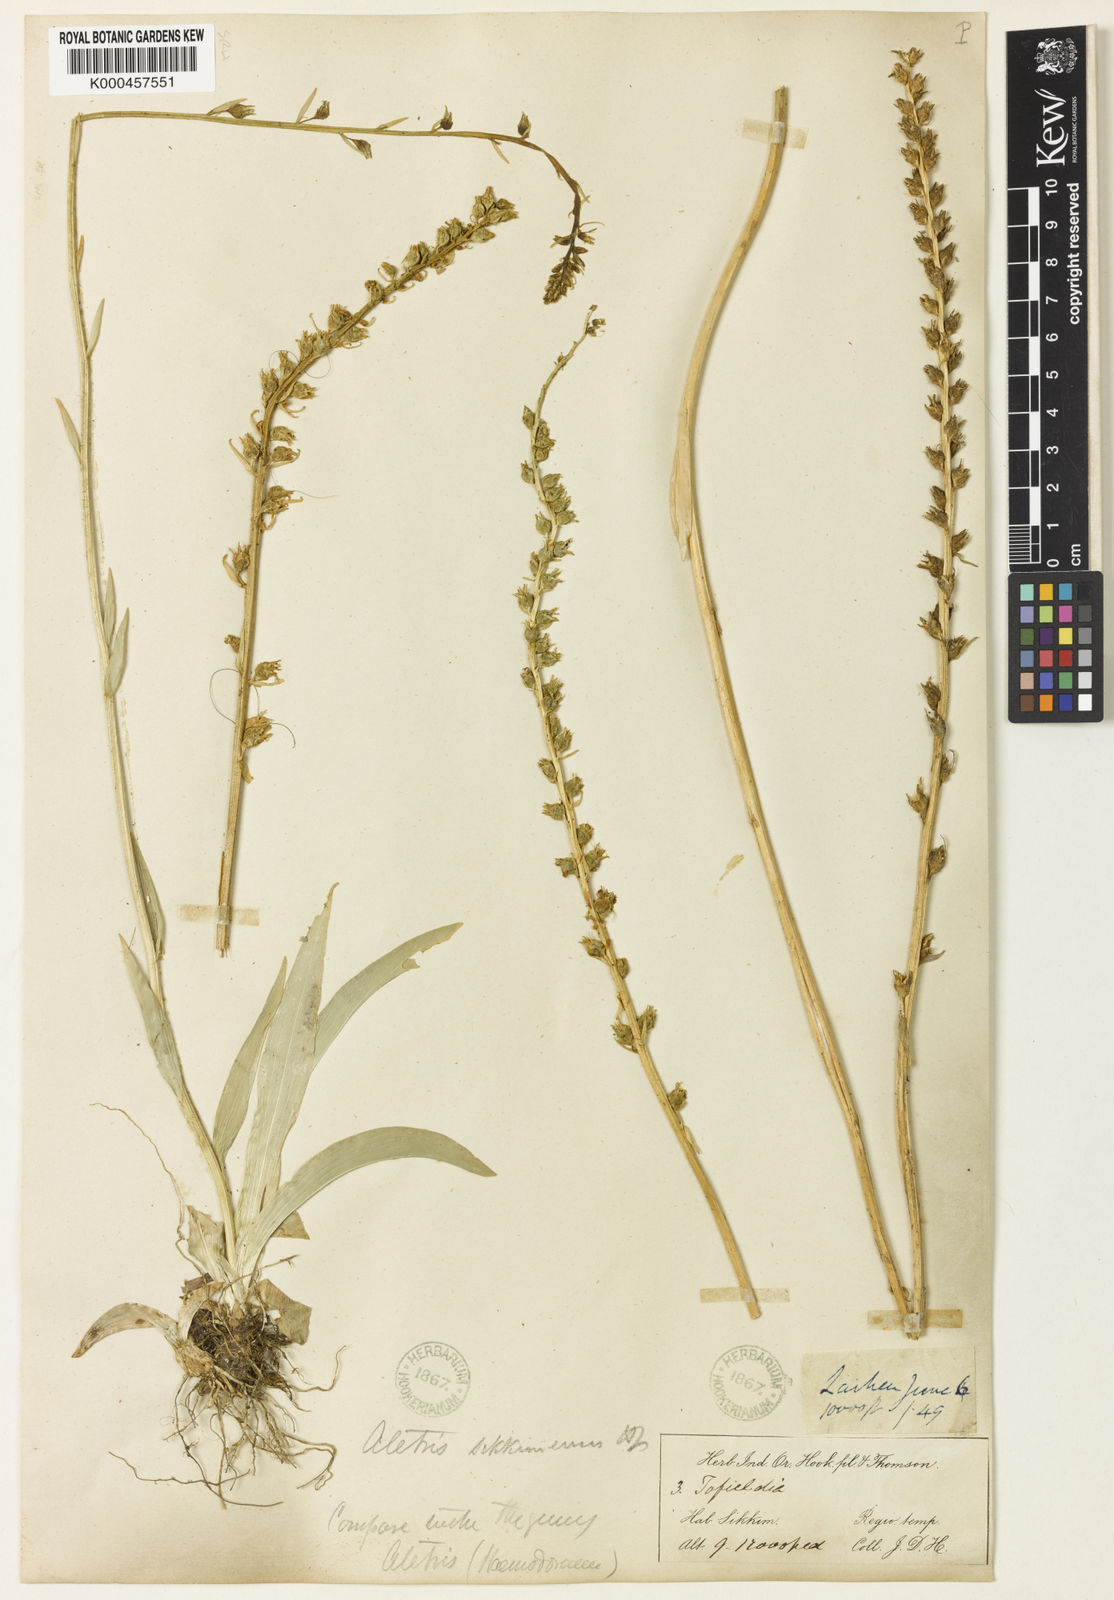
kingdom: Plantae
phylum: Tracheophyta
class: Liliopsida
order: Dioscoreales
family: Nartheciaceae
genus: Aletris
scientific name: Aletris glabra
